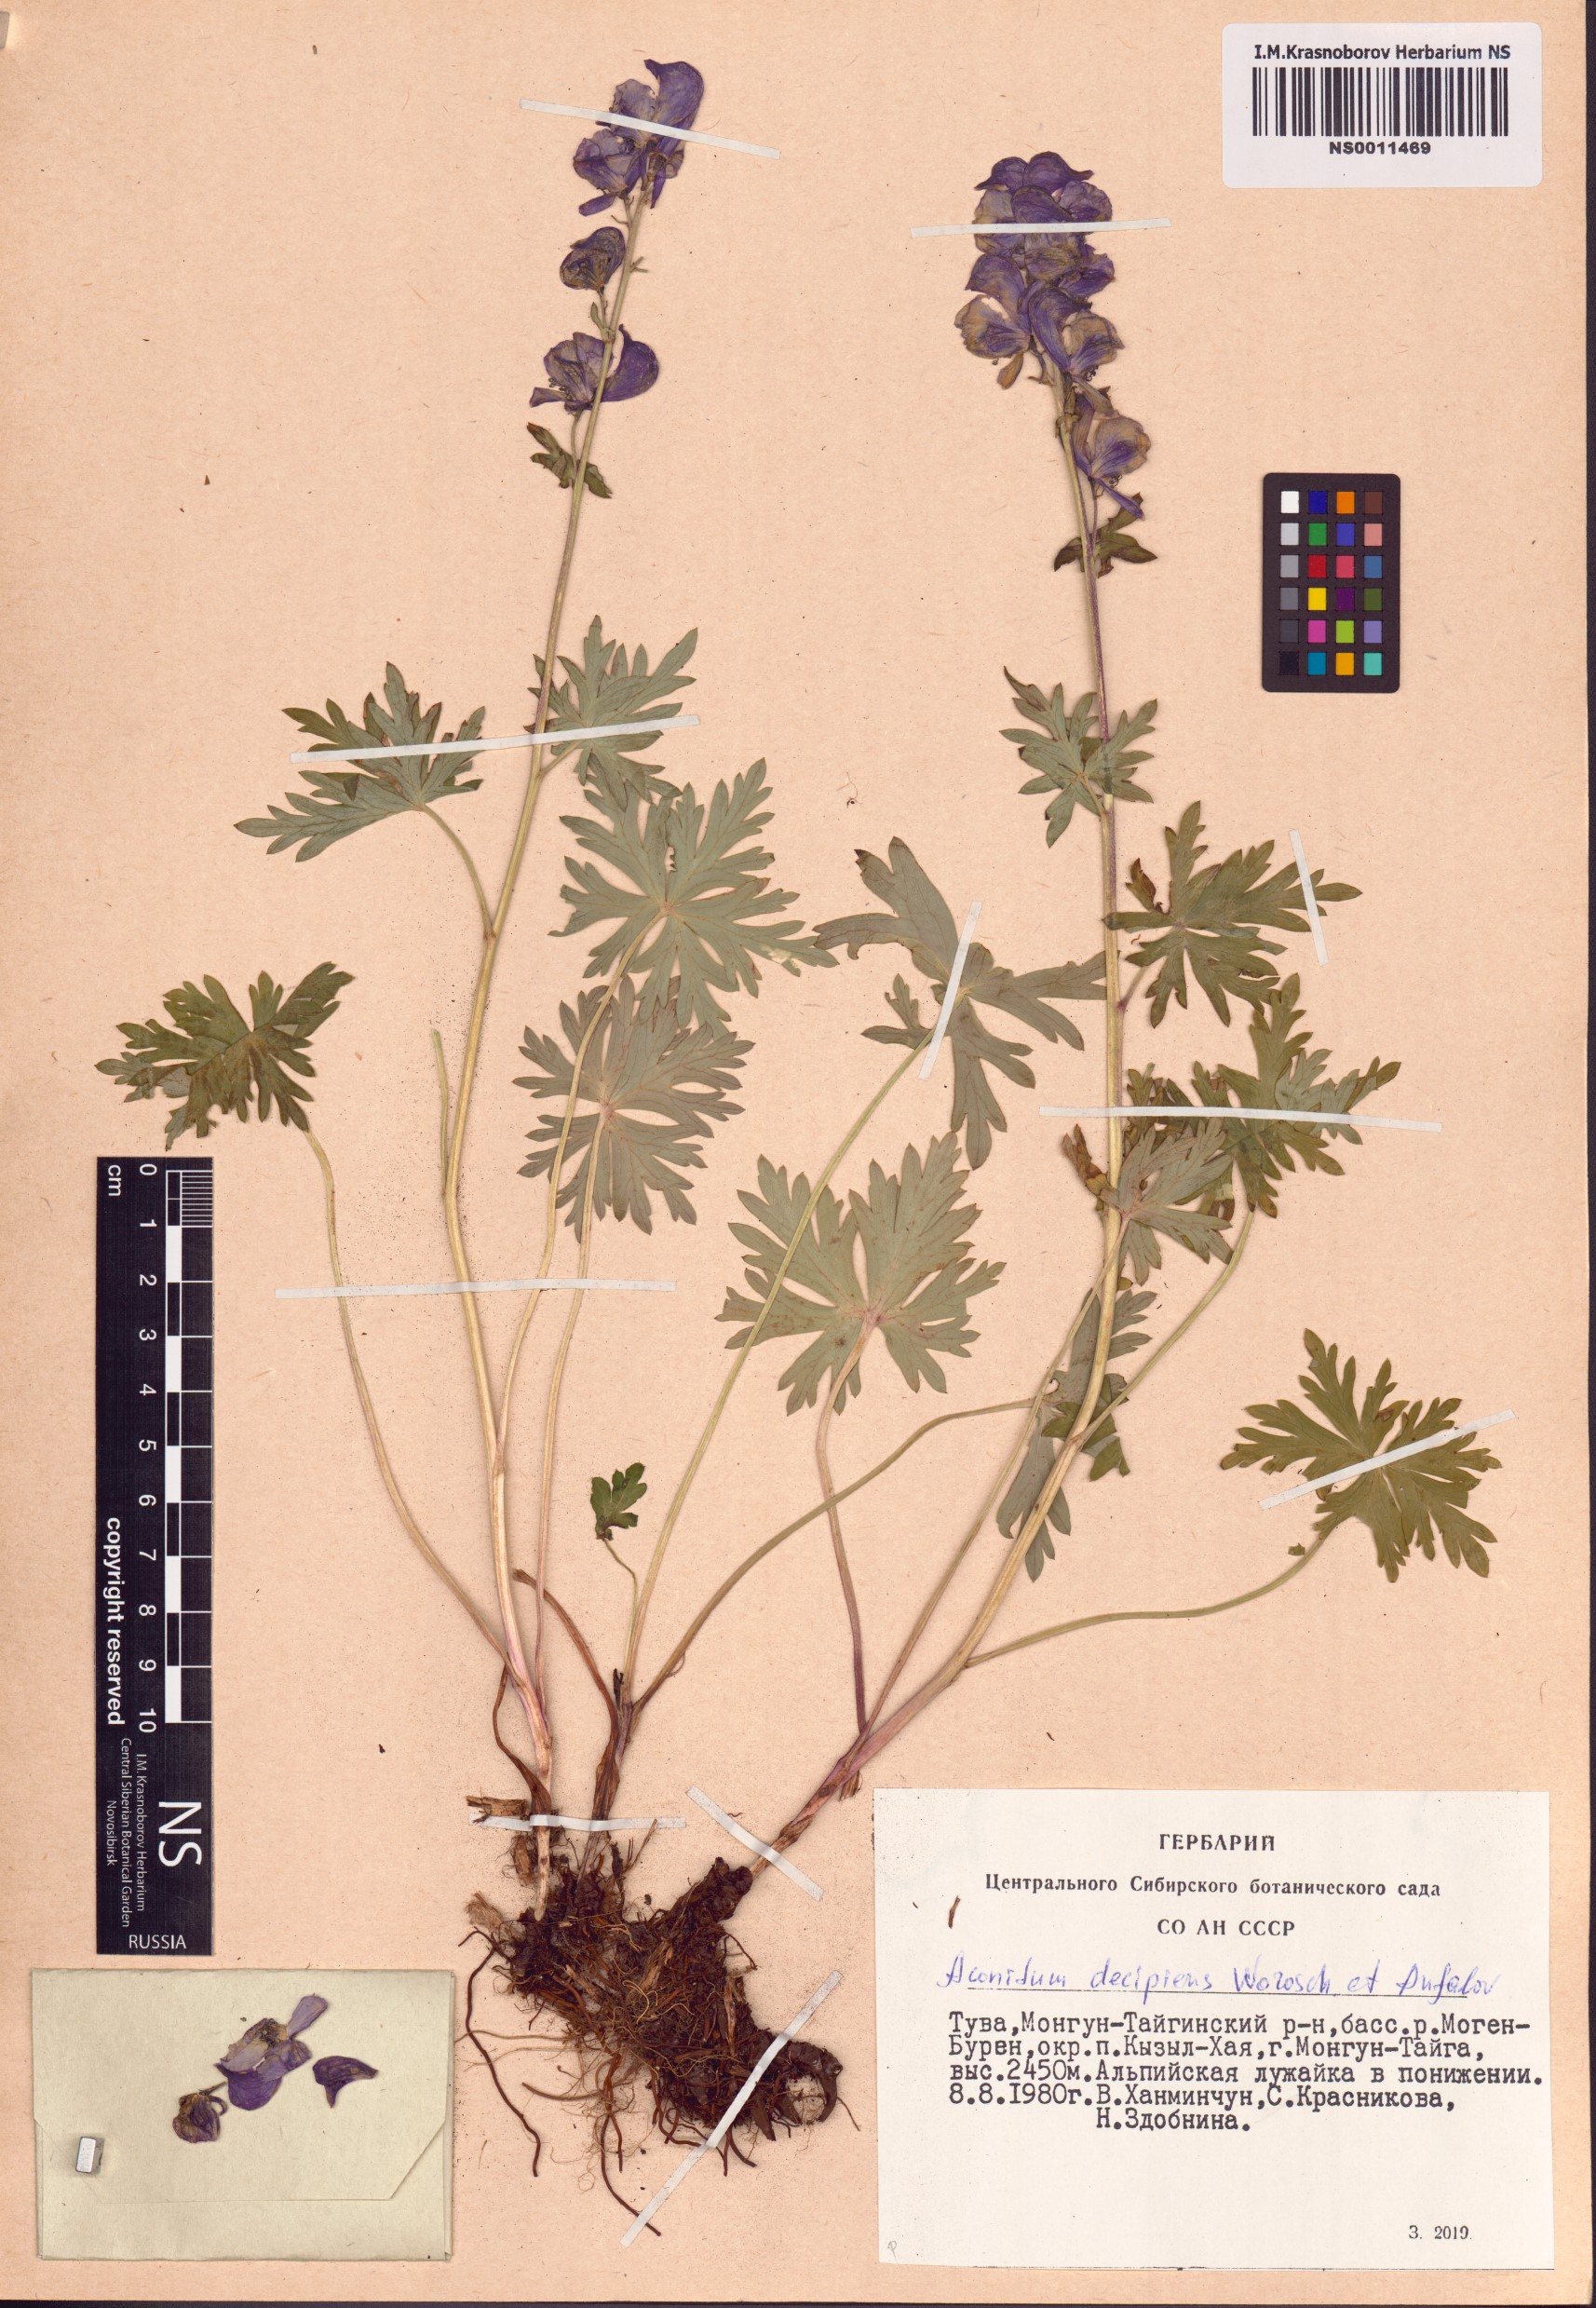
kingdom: Plantae
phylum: Tracheophyta
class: Magnoliopsida
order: Ranunculales
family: Ranunculaceae
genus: Aconitum
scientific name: Aconitum decipiens
